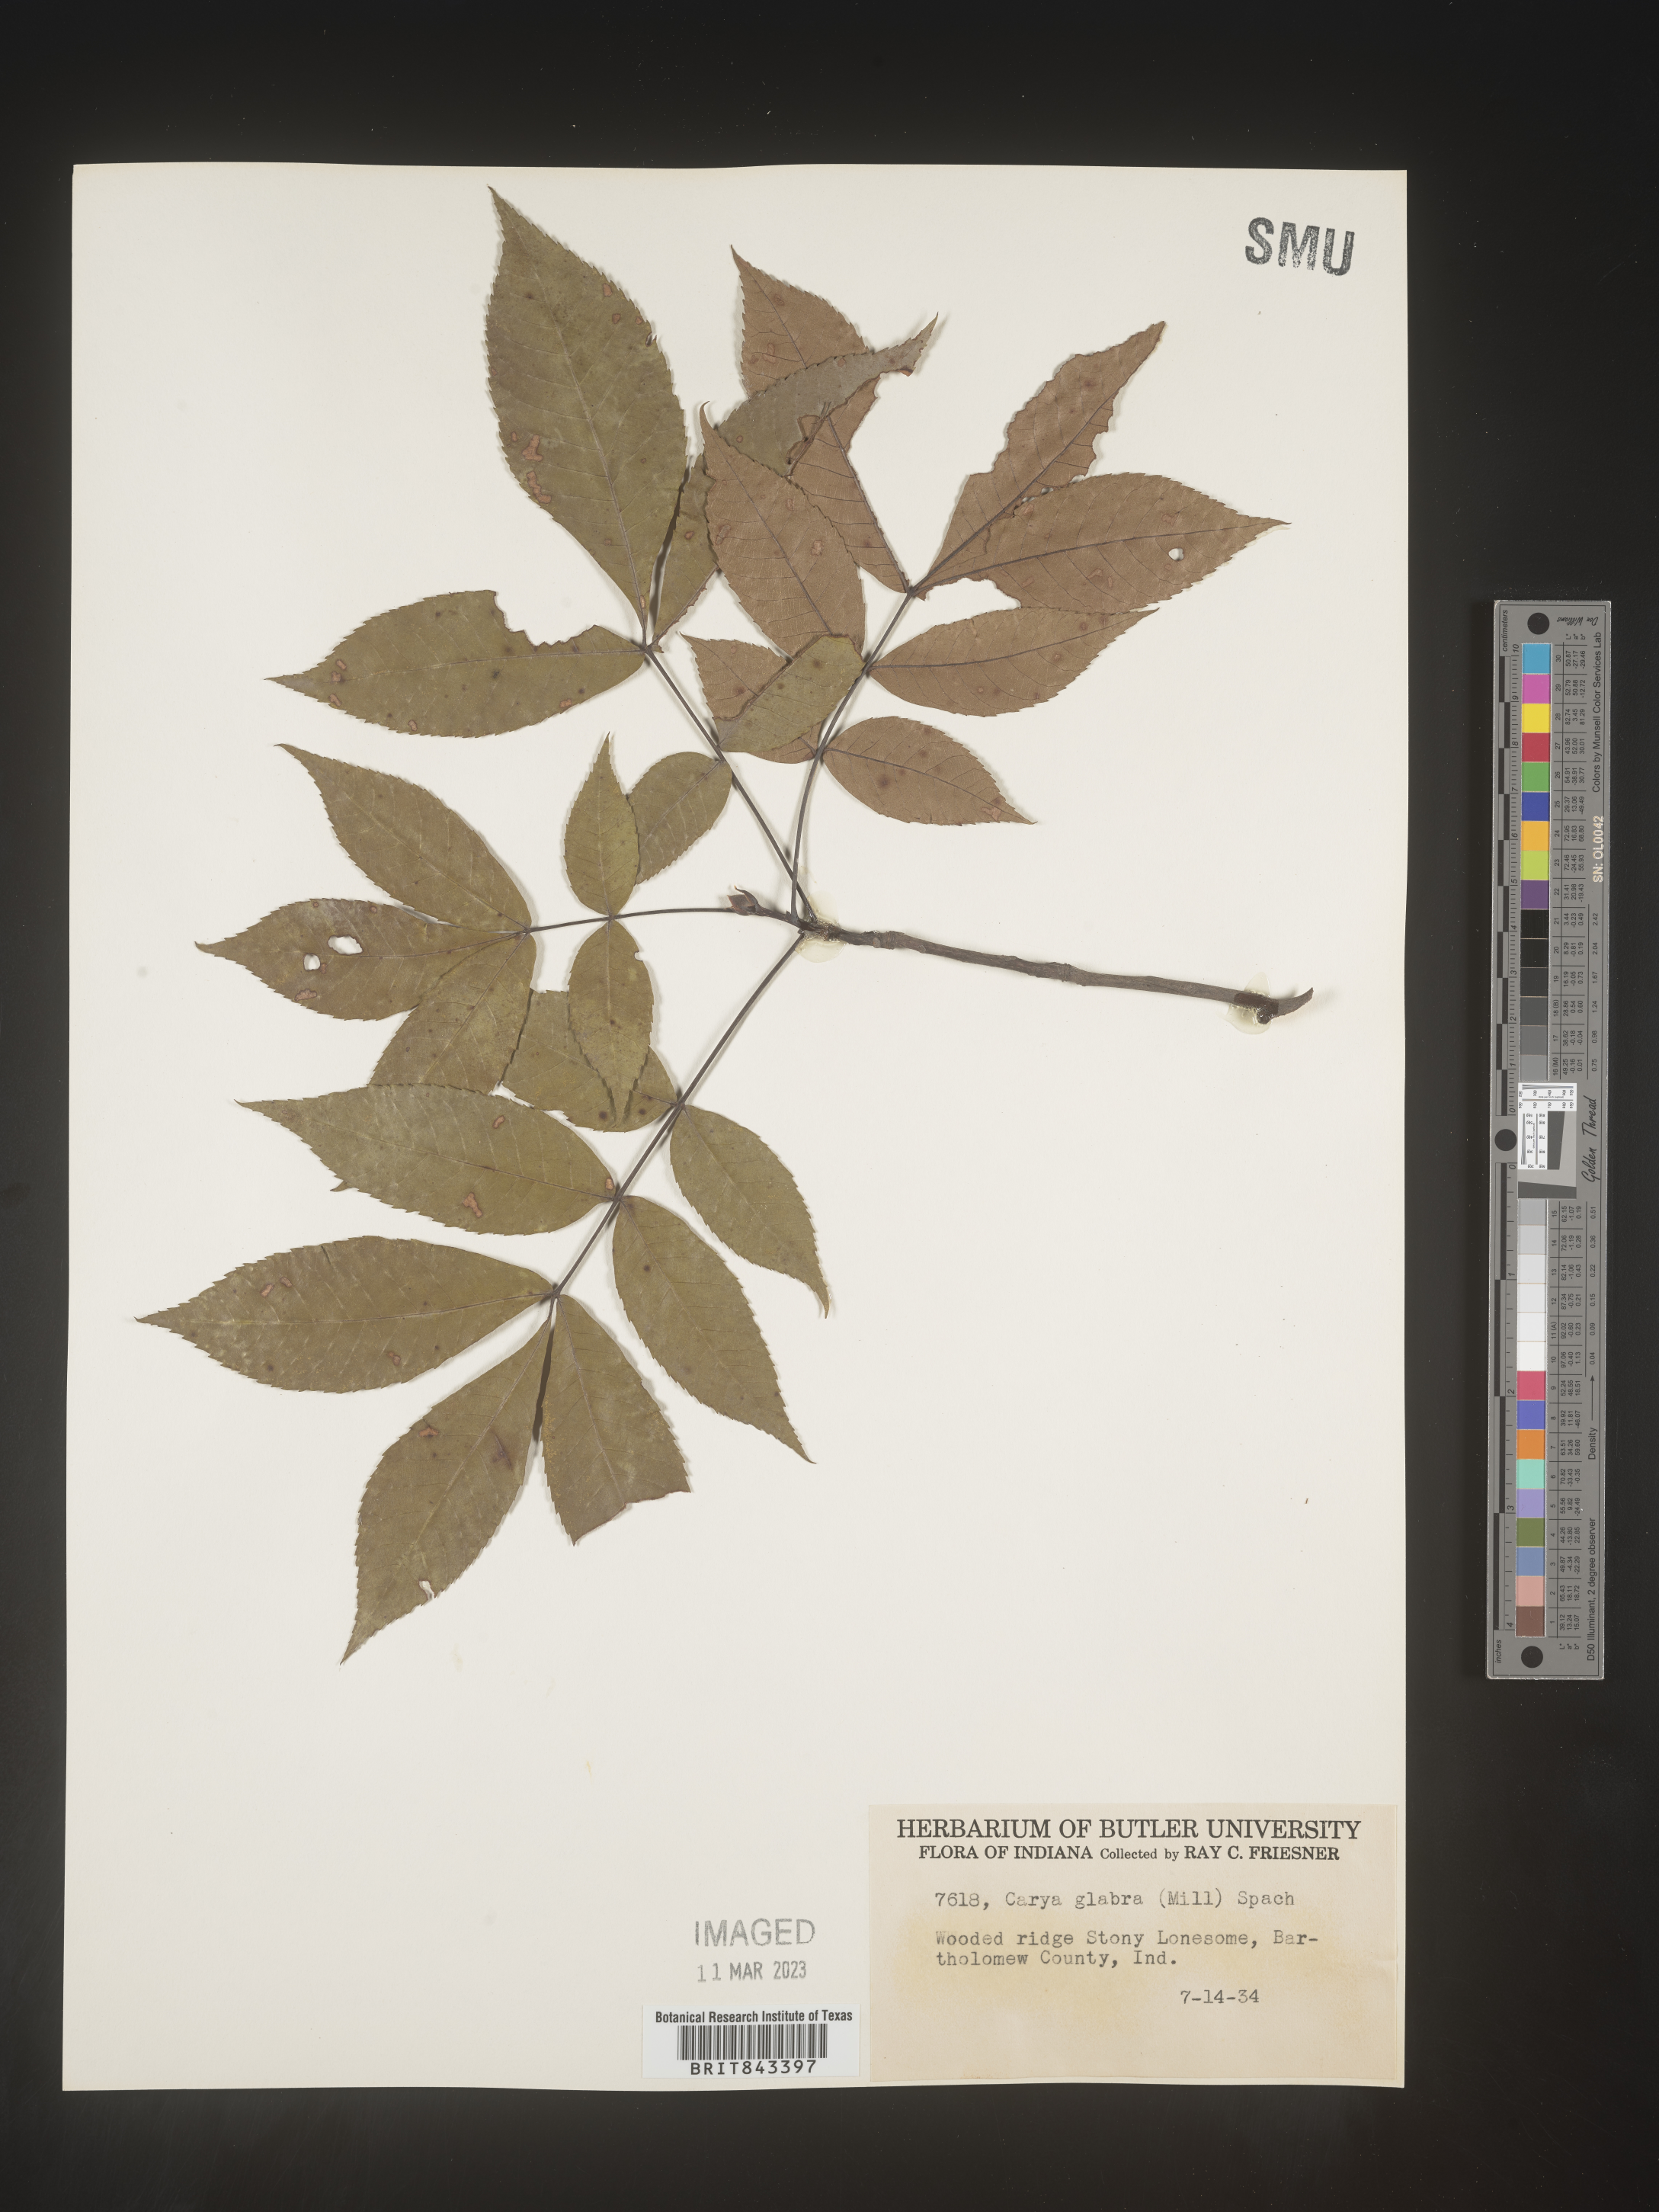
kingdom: Plantae
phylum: Tracheophyta
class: Magnoliopsida
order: Fagales
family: Juglandaceae
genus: Carya
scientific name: Carya glabra
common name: Pignut hickory
